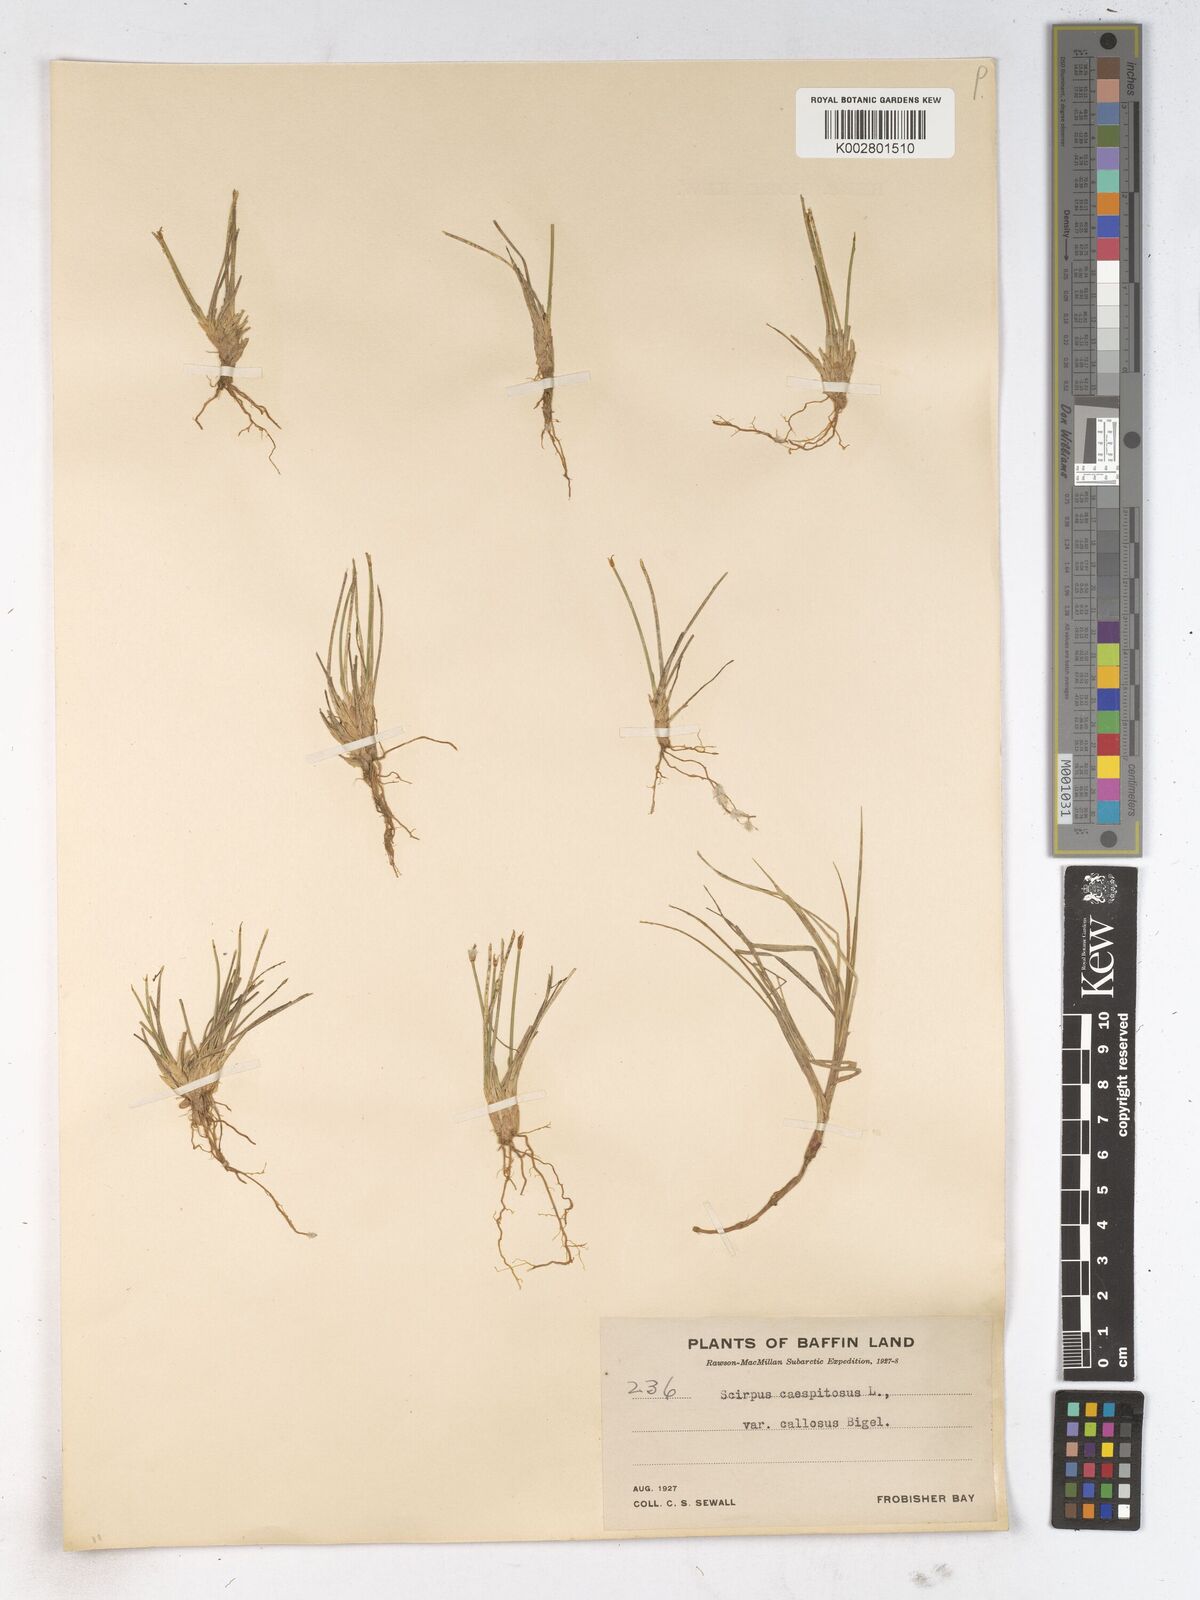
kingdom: Plantae
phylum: Tracheophyta
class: Liliopsida
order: Poales
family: Cyperaceae
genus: Trichophorum
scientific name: Trichophorum cespitosum
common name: Cespitose bulrush
